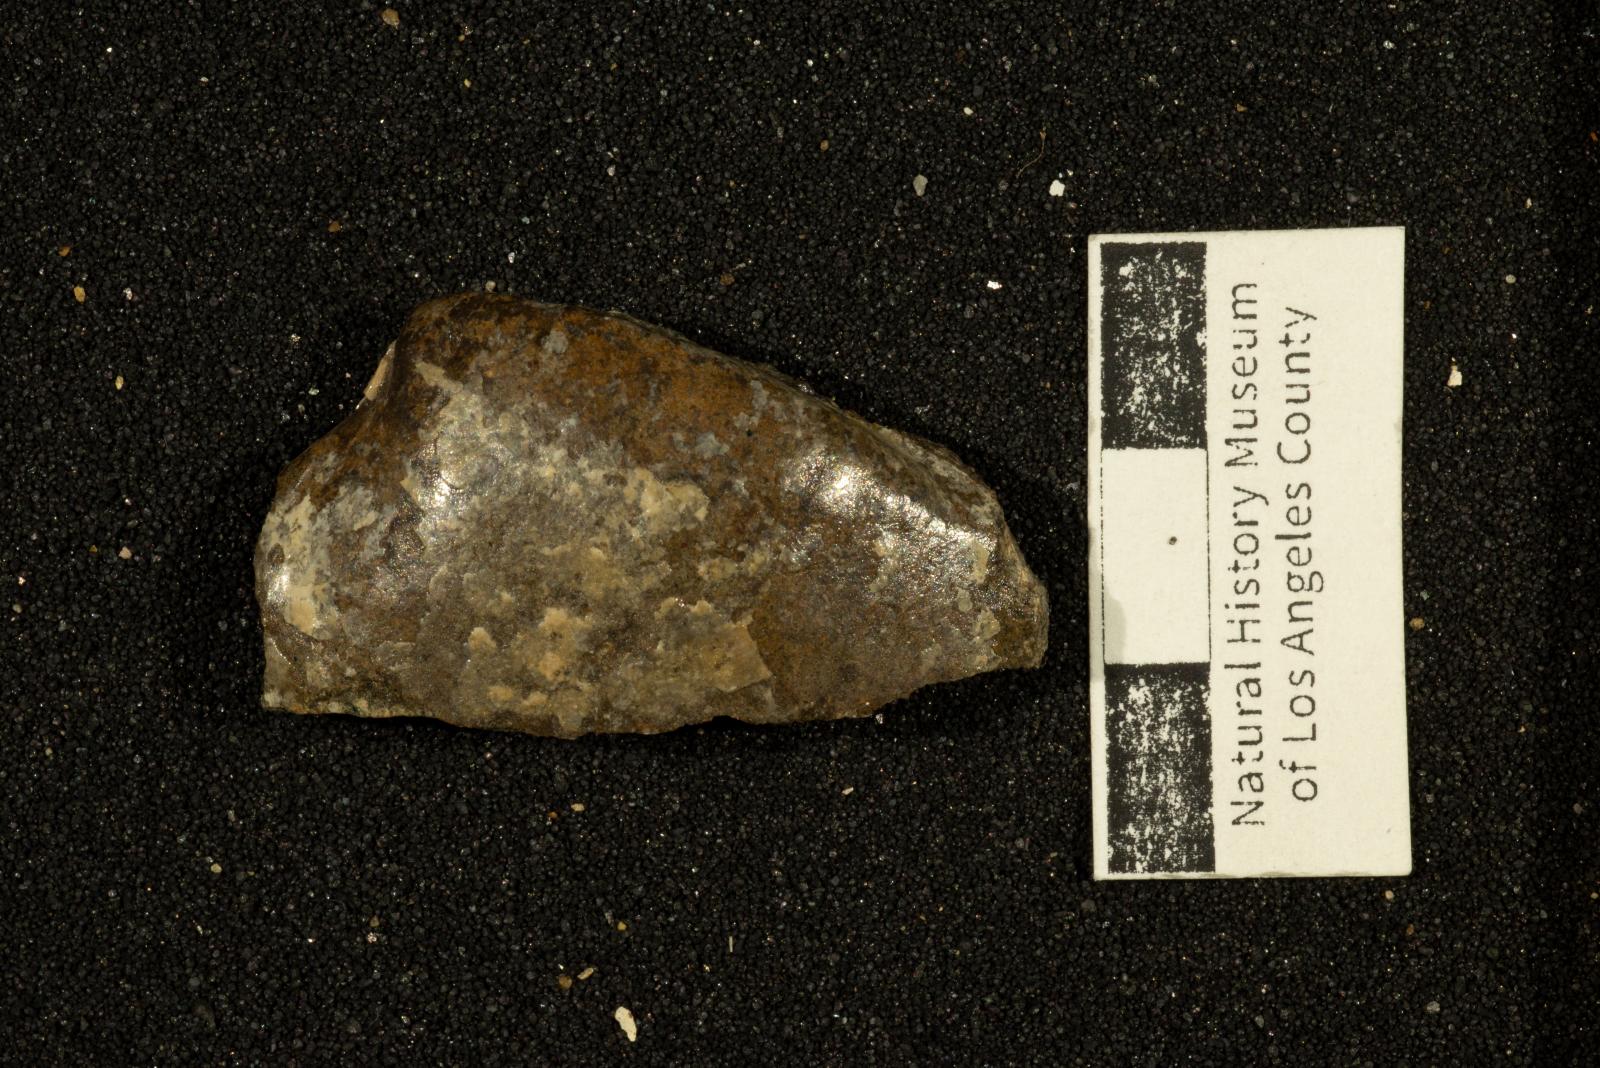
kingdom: Animalia
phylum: Mollusca
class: Bivalvia
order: Cardiida
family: Tellinidae
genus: Nelltia
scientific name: Nelltia salsa
